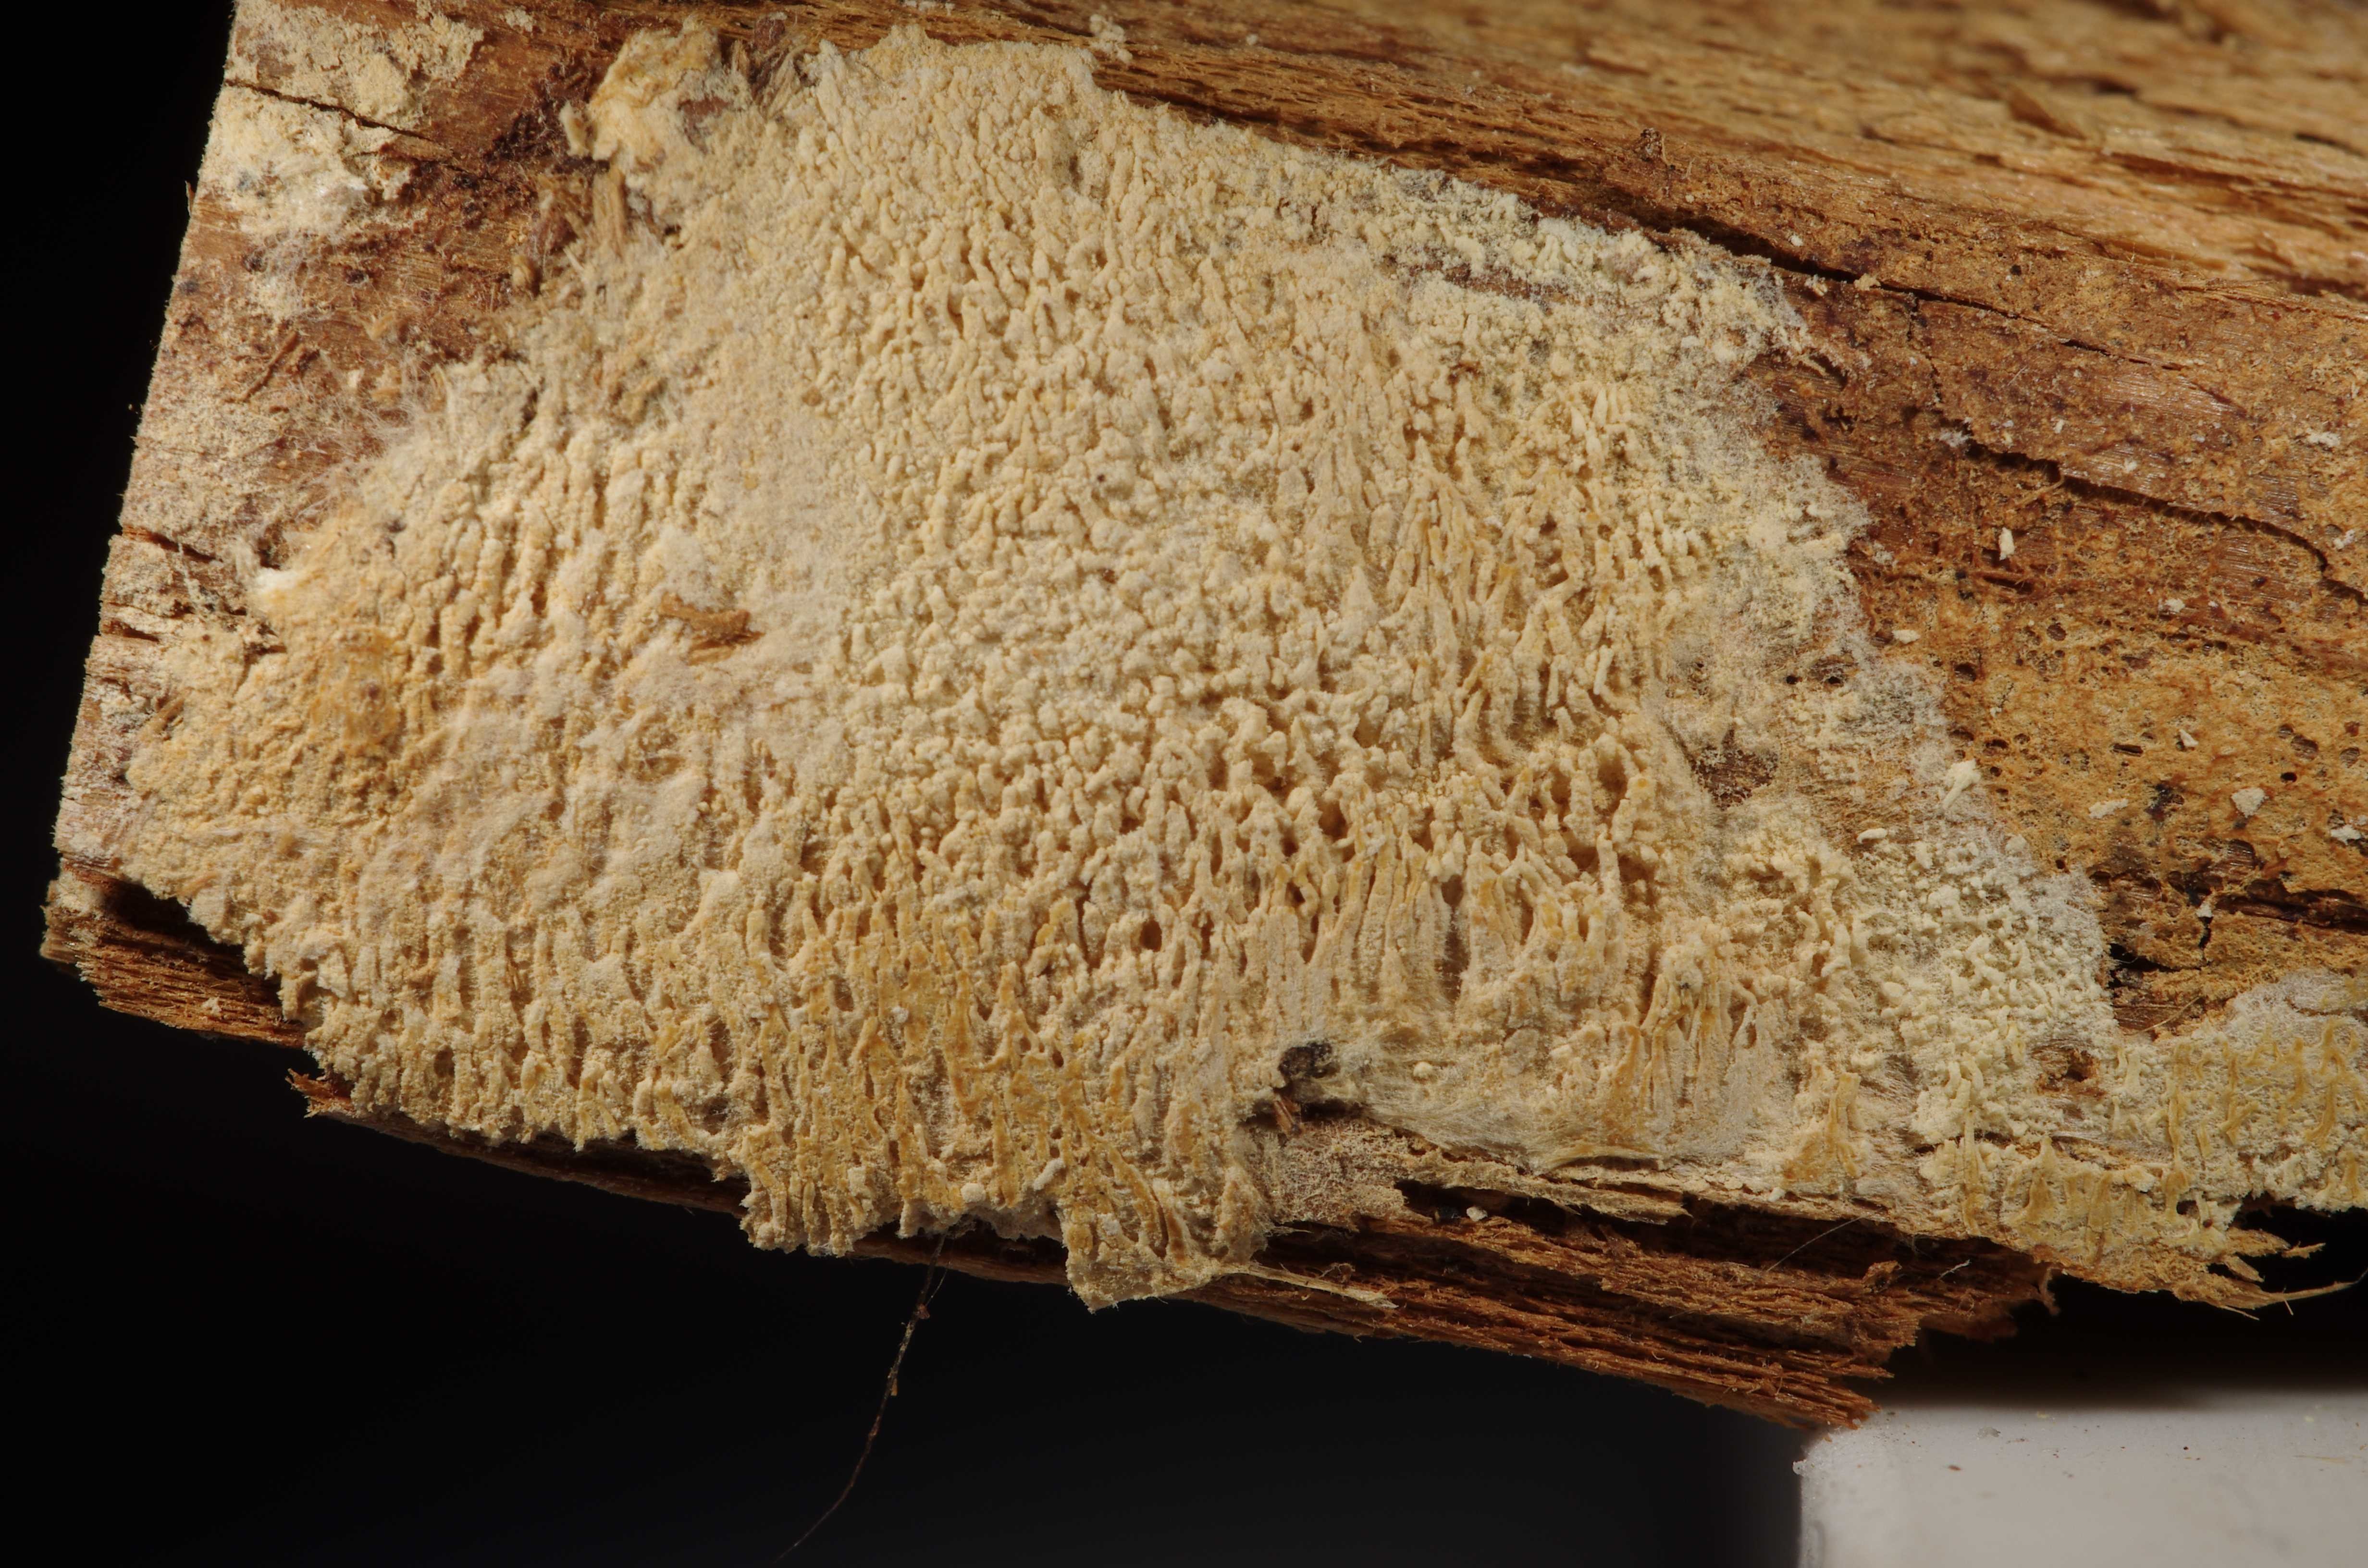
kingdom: Fungi
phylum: Basidiomycota
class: Agaricomycetes
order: Trechisporales
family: Sistotremataceae
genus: Trechispora
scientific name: Trechispora kavinioides
